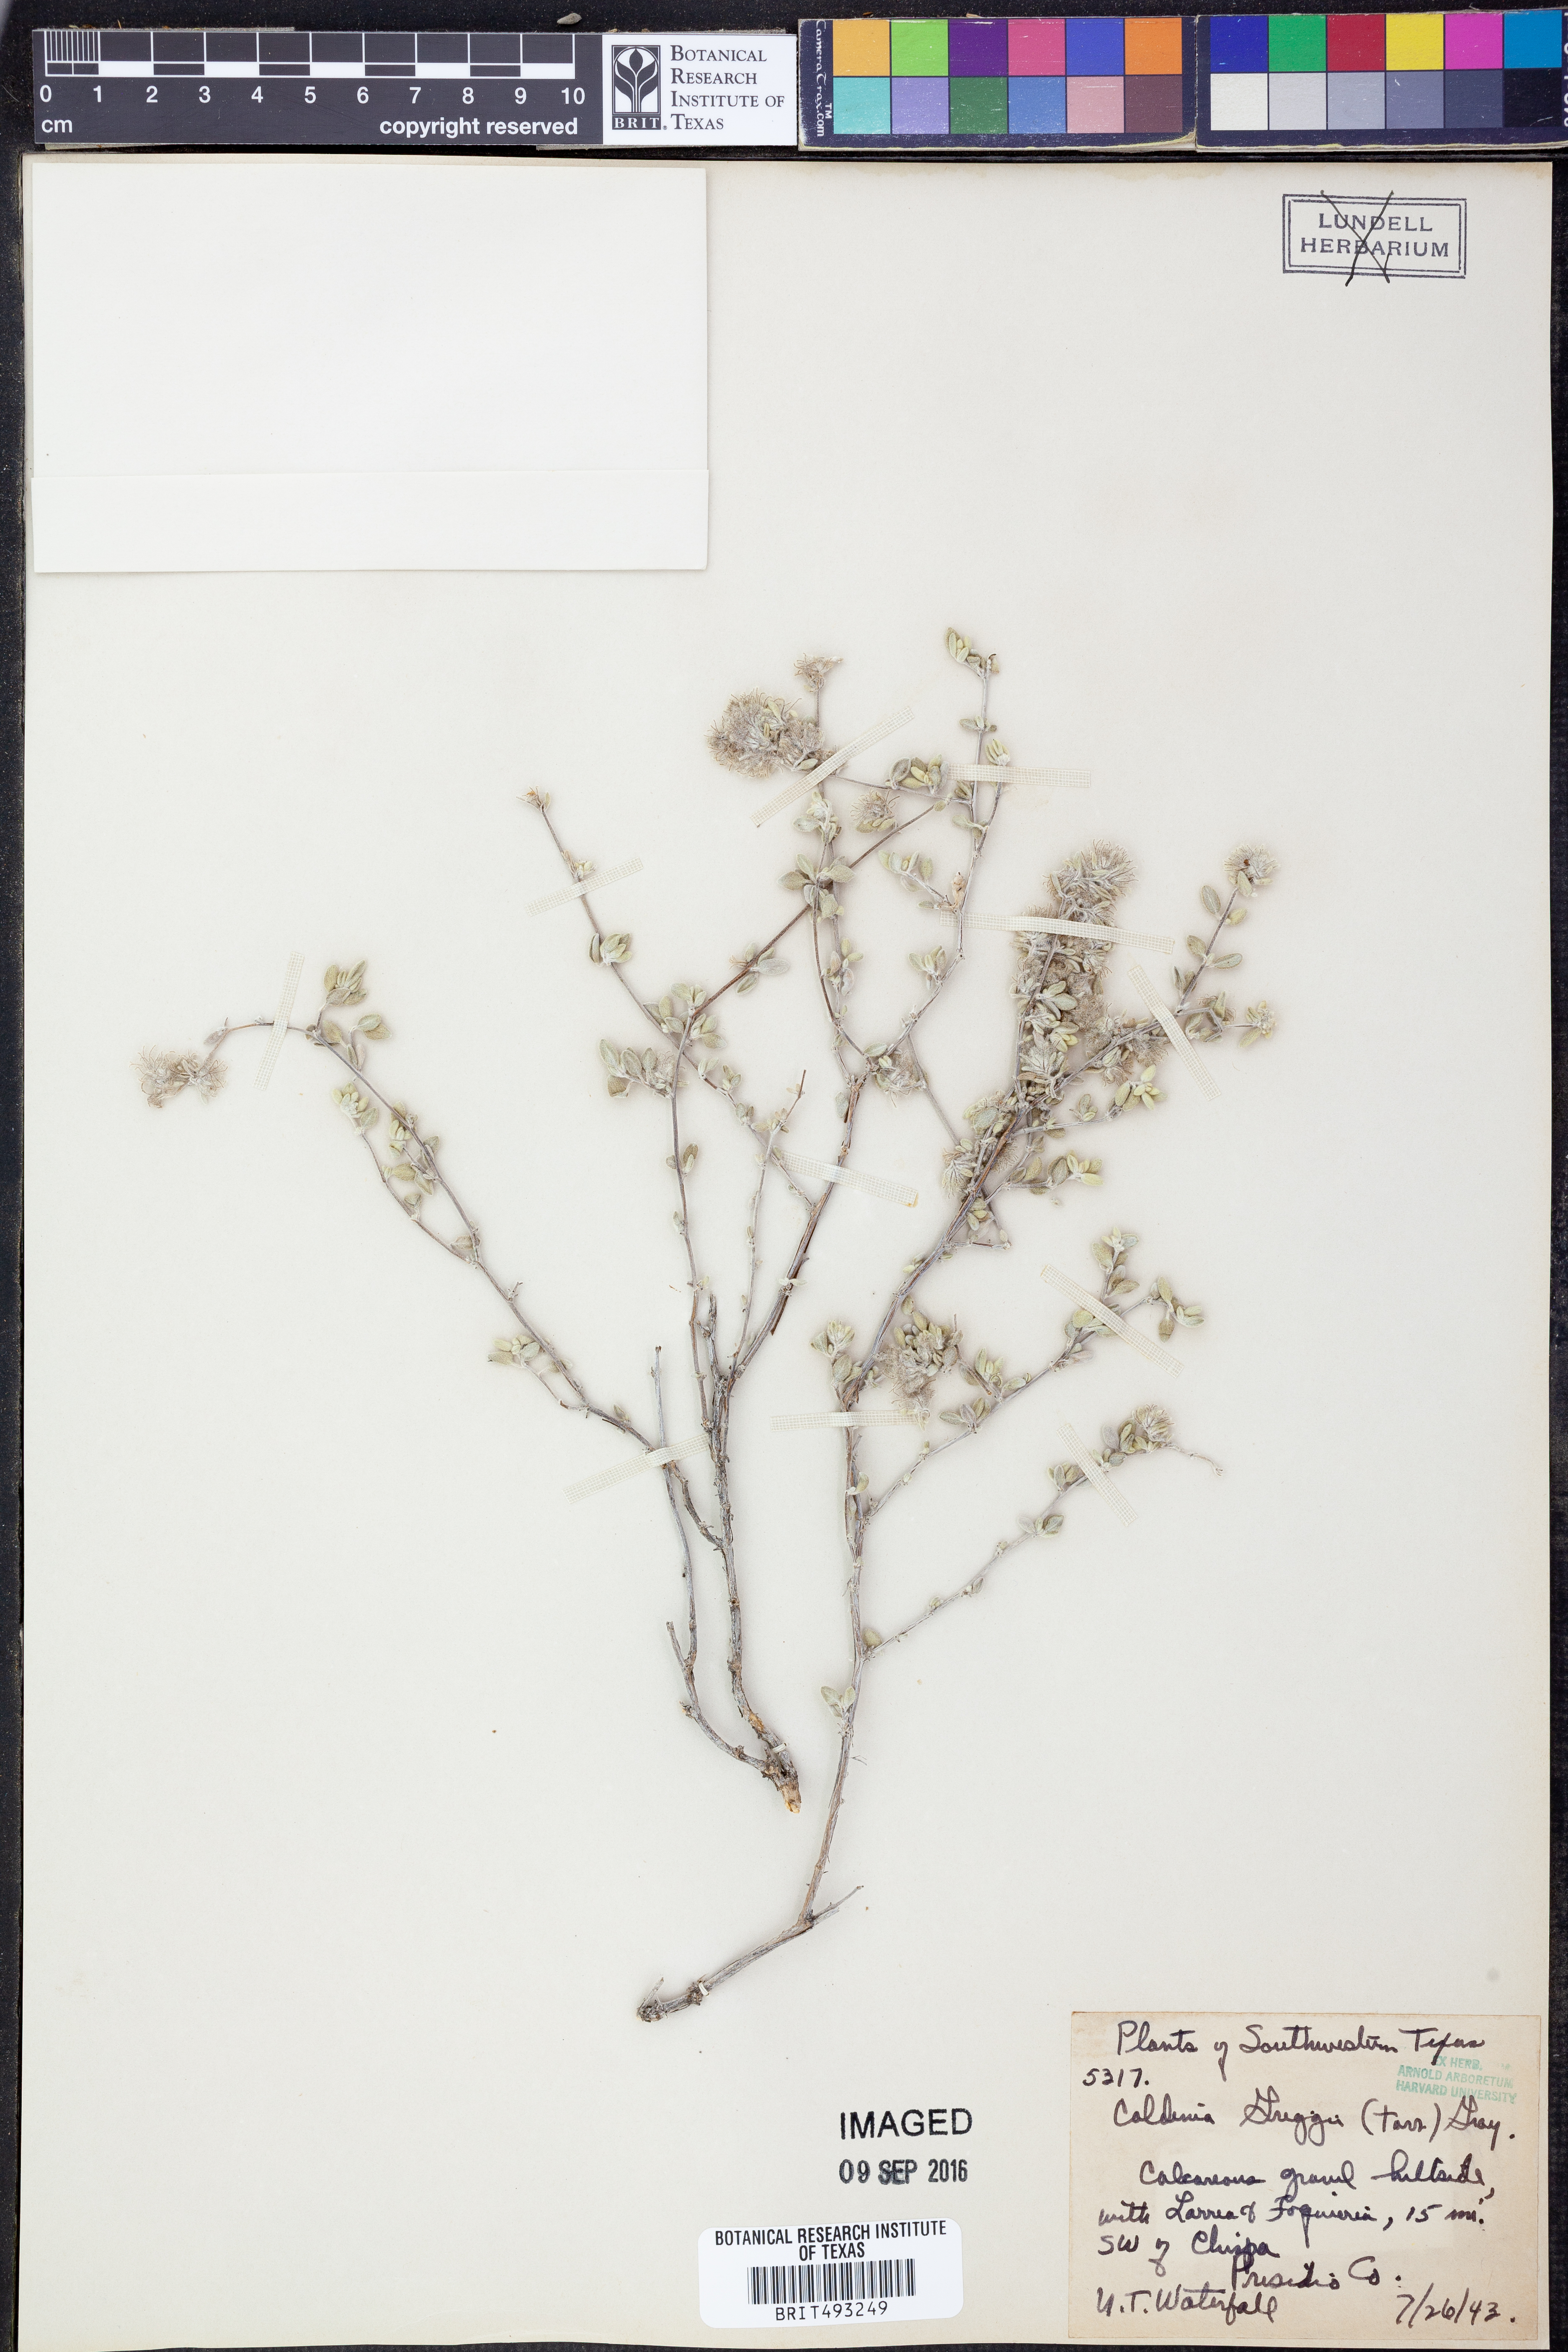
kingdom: Plantae
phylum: Tracheophyta
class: Magnoliopsida
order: Boraginales
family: Ehretiaceae
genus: Tiquilia
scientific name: Tiquilia greggii
